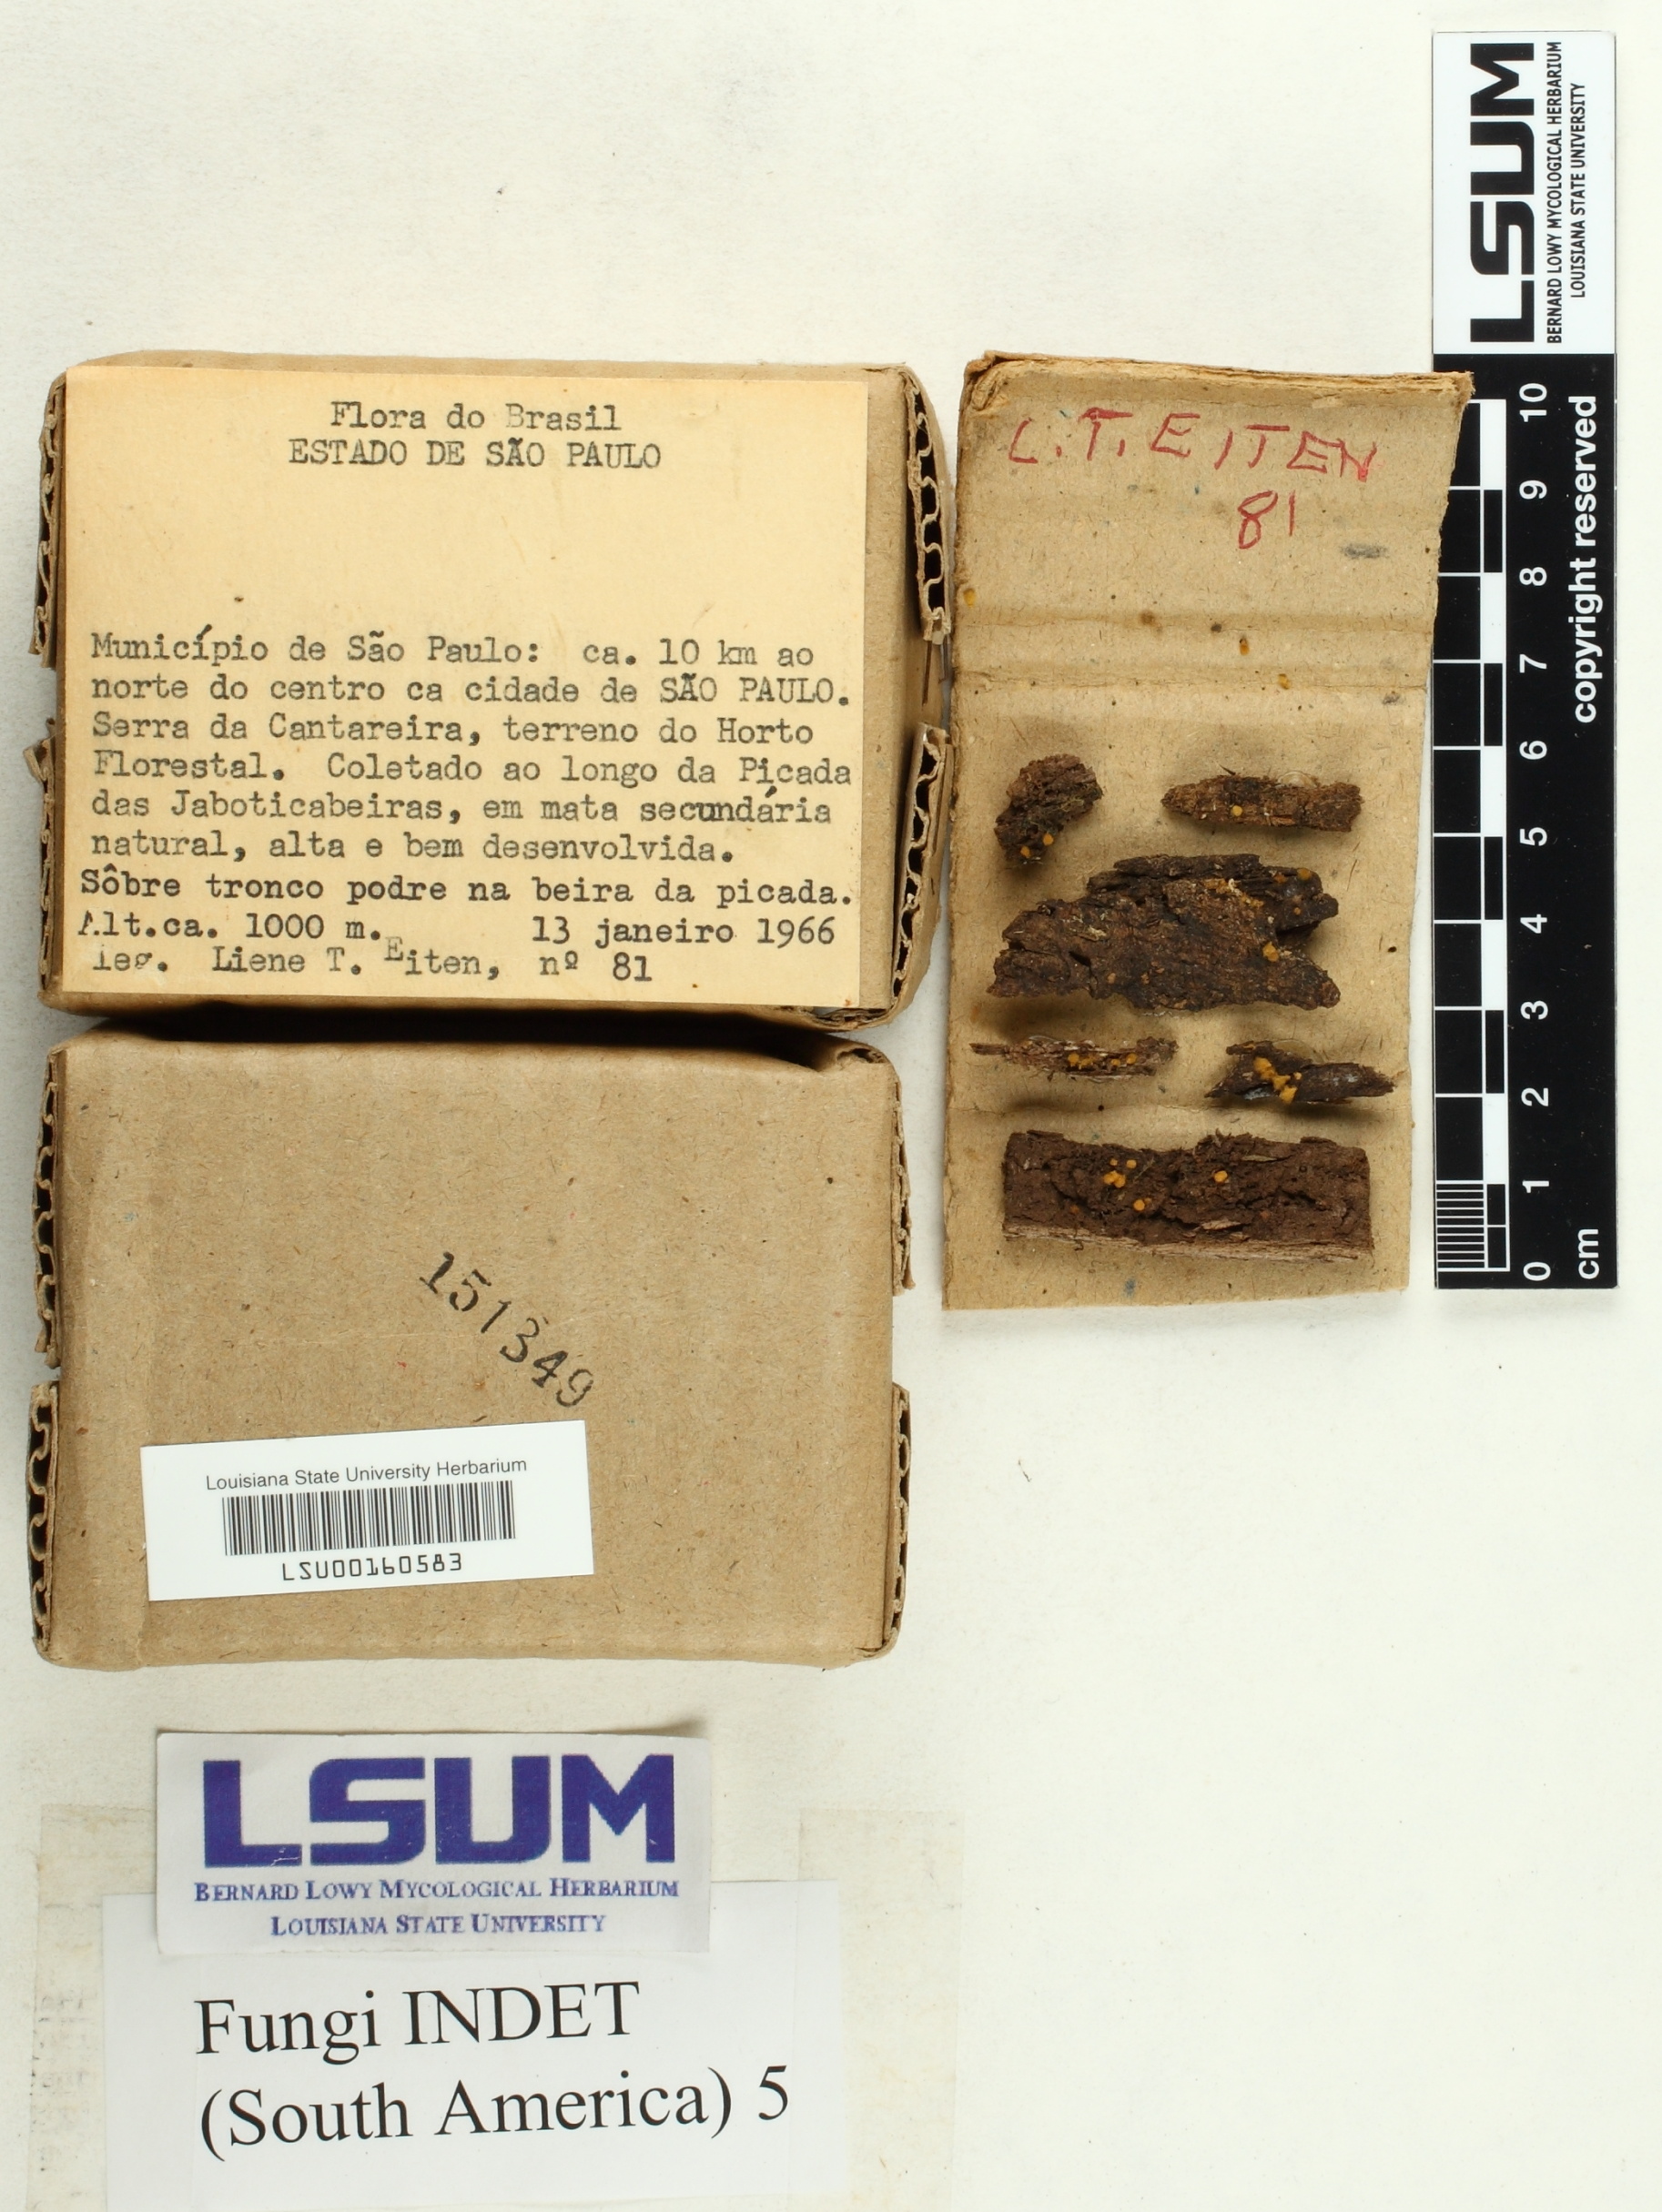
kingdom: Fungi
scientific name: Fungi
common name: Fungi
